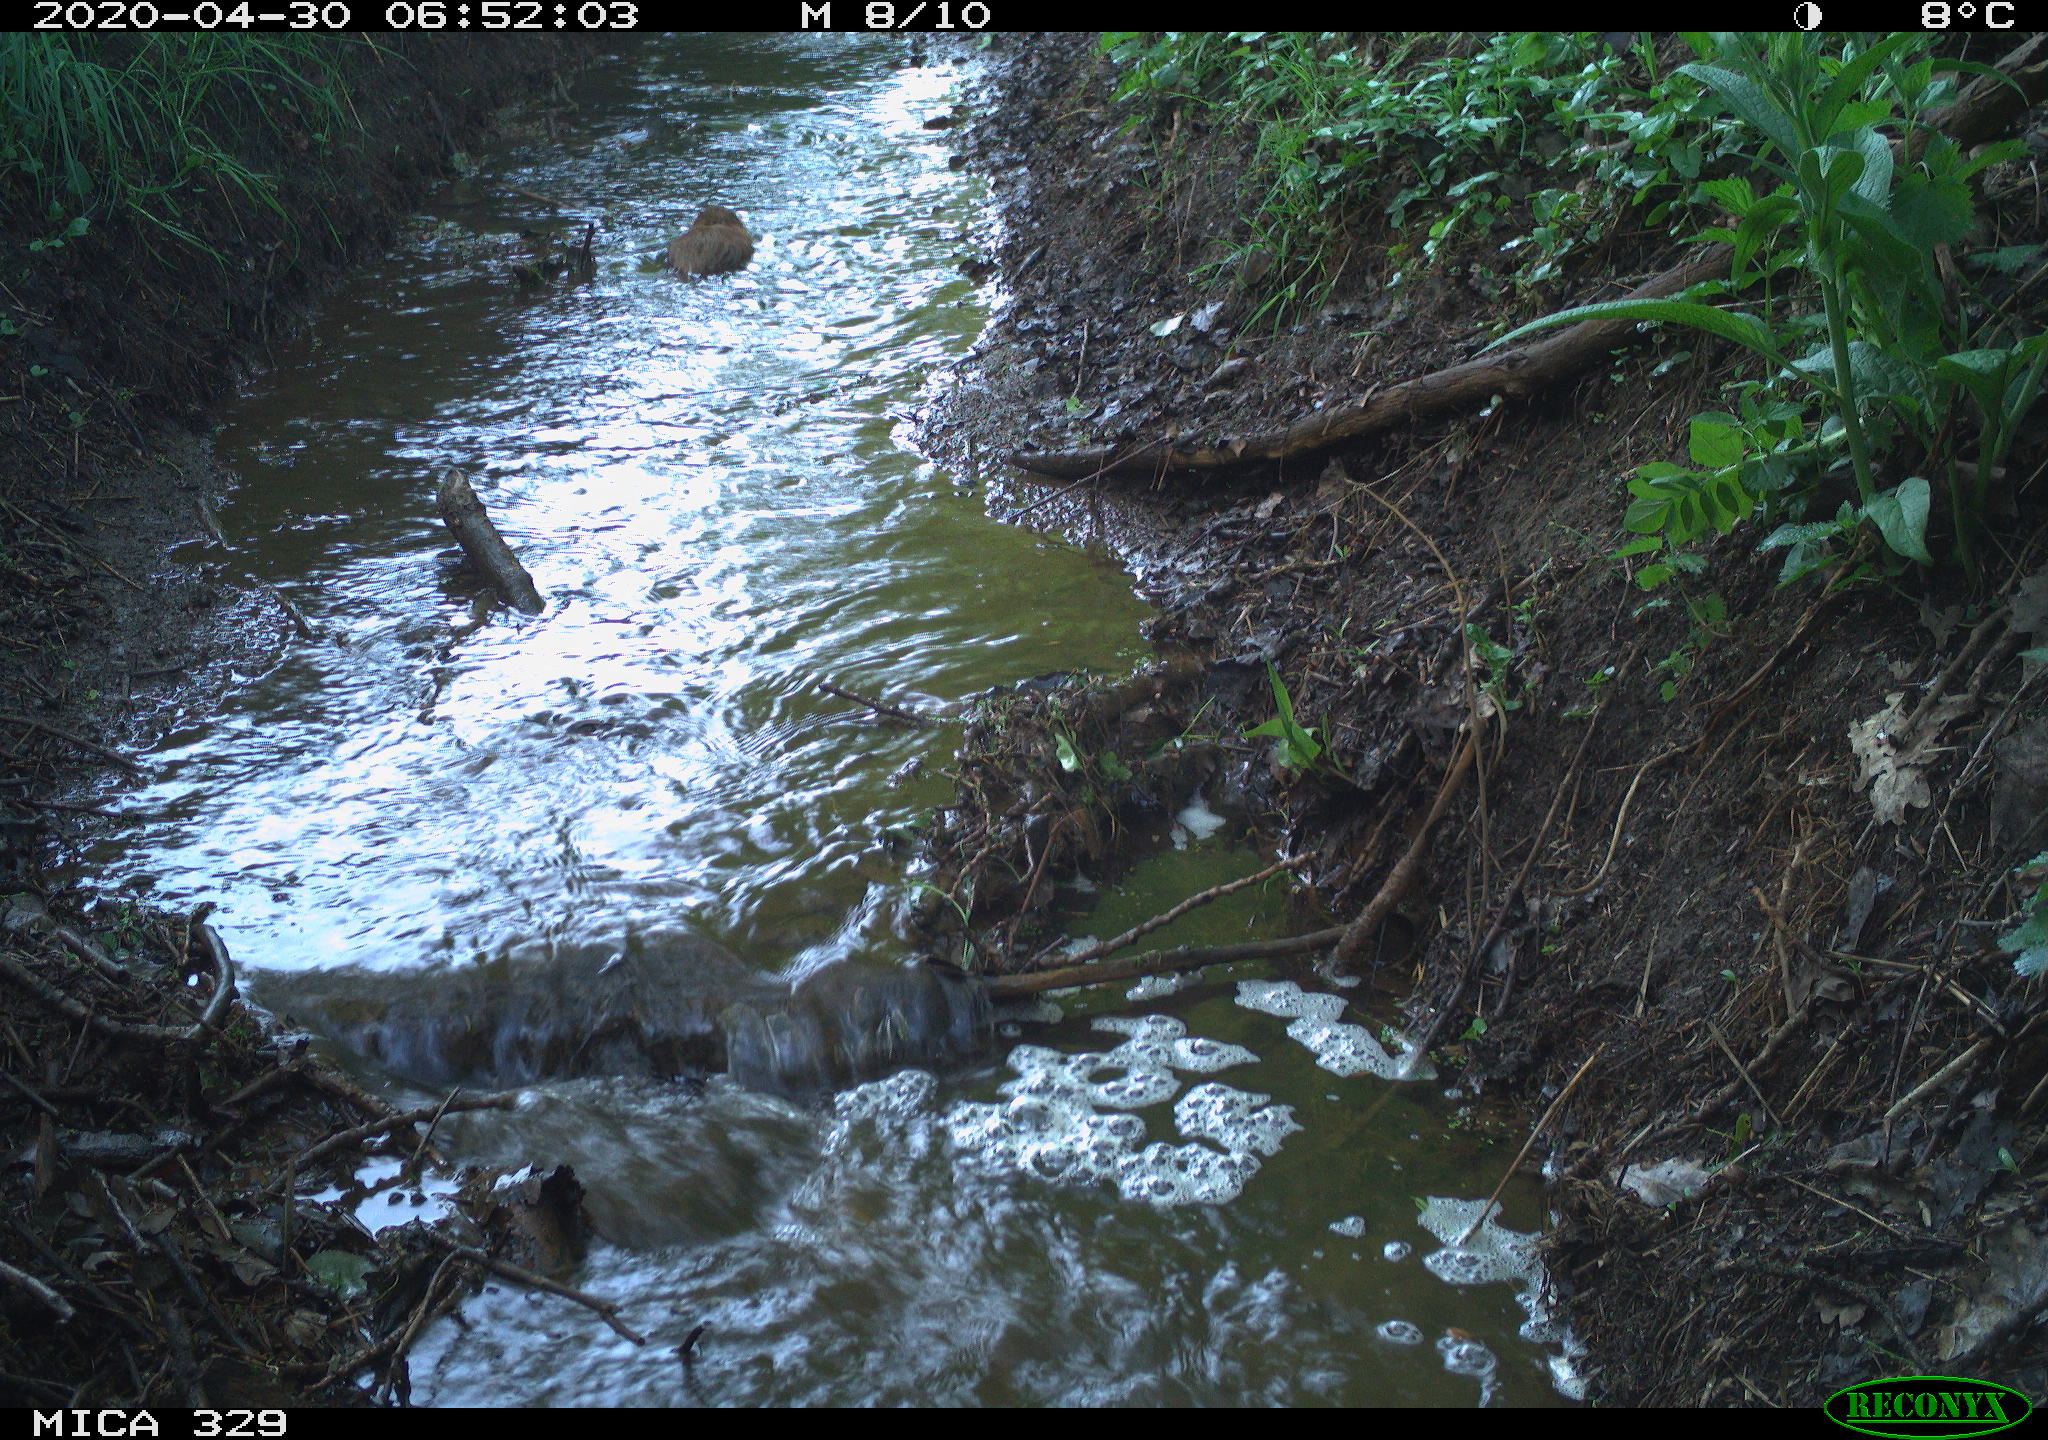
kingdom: Animalia
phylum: Chordata
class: Mammalia
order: Rodentia
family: Cricetidae
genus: Ondatra
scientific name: Ondatra zibethicus
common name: Muskrat
